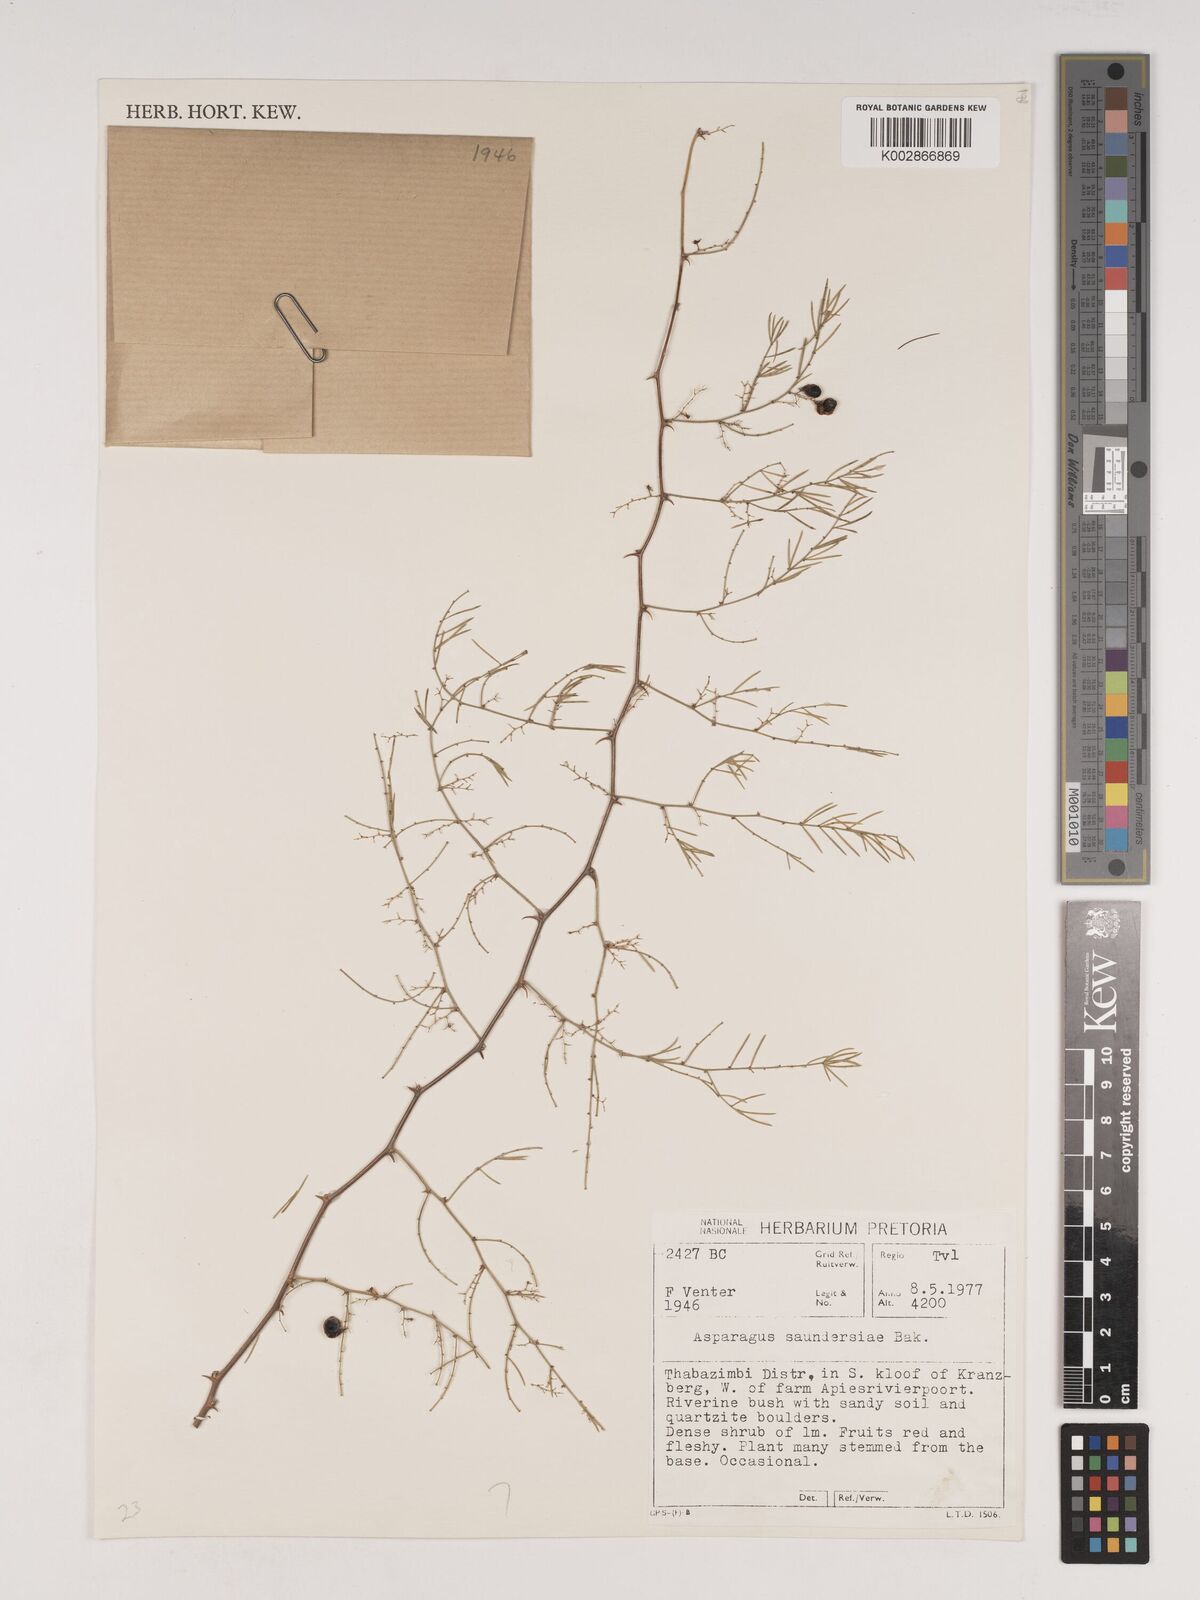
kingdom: Plantae
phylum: Tracheophyta
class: Liliopsida
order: Asparagales
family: Asparagaceae
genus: Asparagus
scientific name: Asparagus saundersiae
